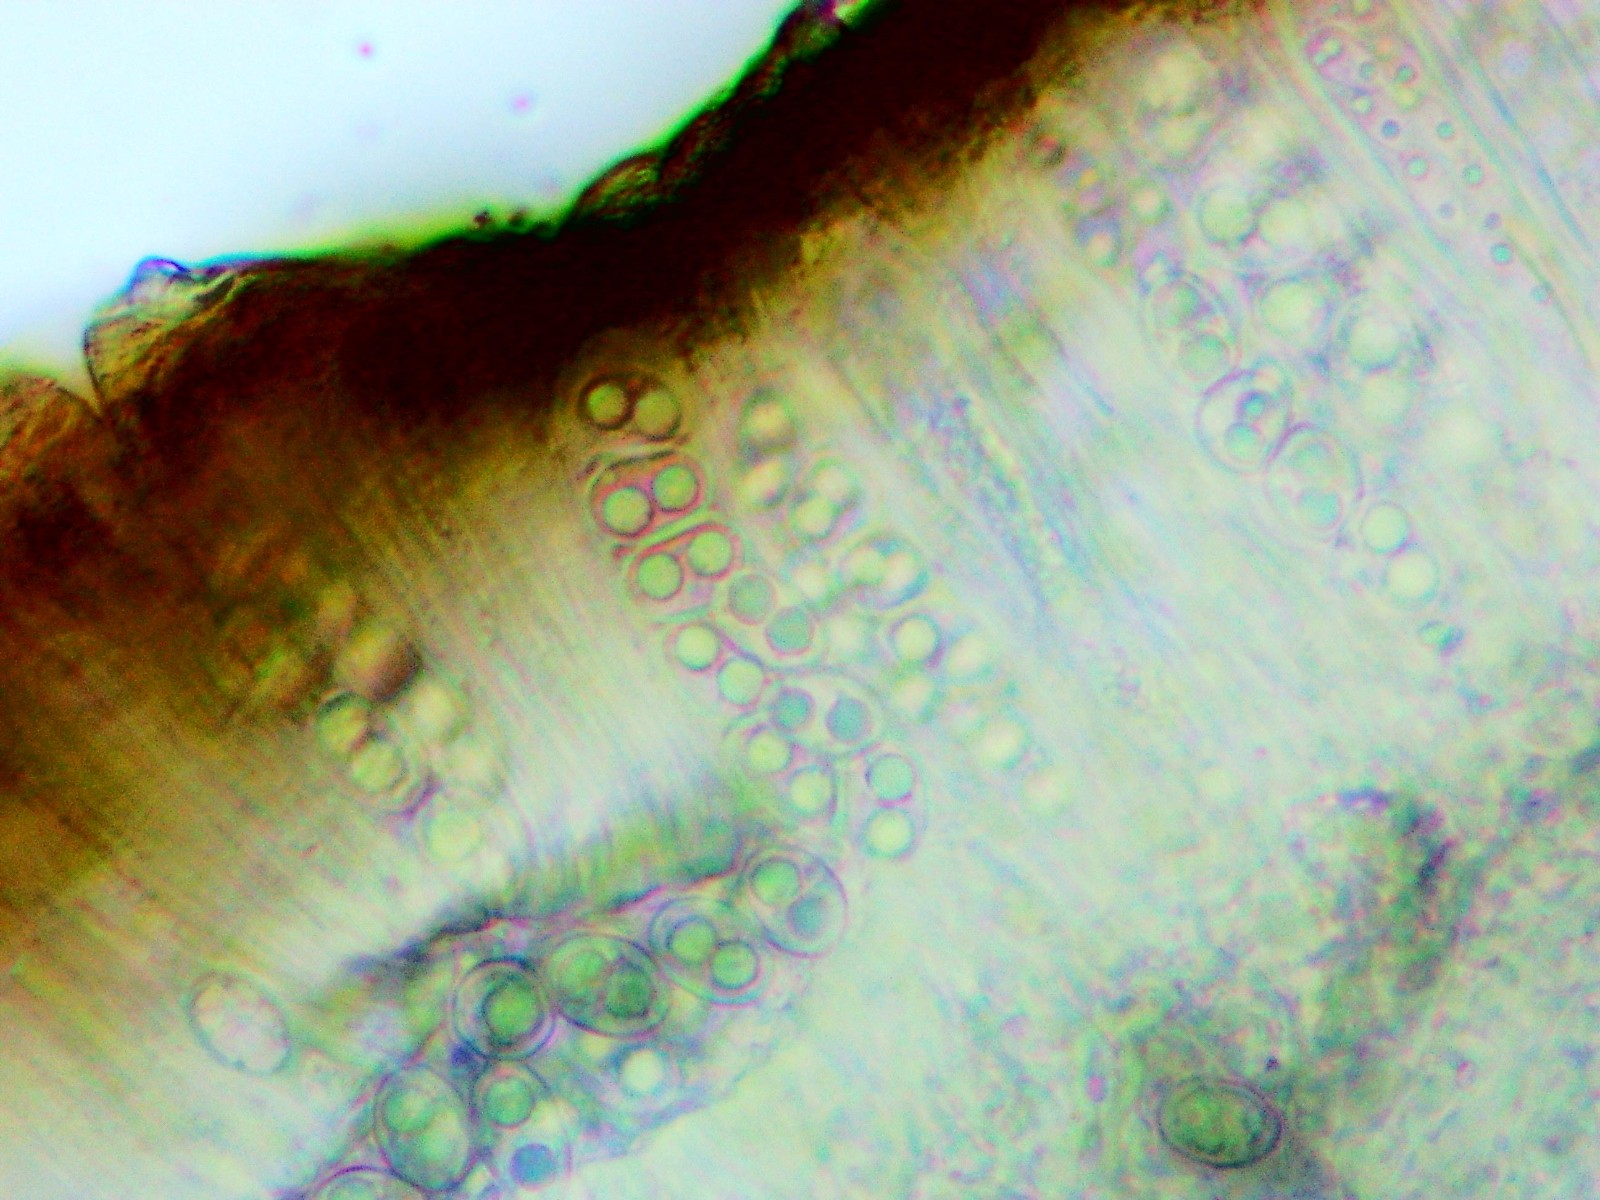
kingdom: Fungi
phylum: Ascomycota
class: Lecanoromycetes
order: Lecanorales
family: Lecanoraceae
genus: Lecanora
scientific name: Lecanora chlarotera
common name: brun kantskivelav
